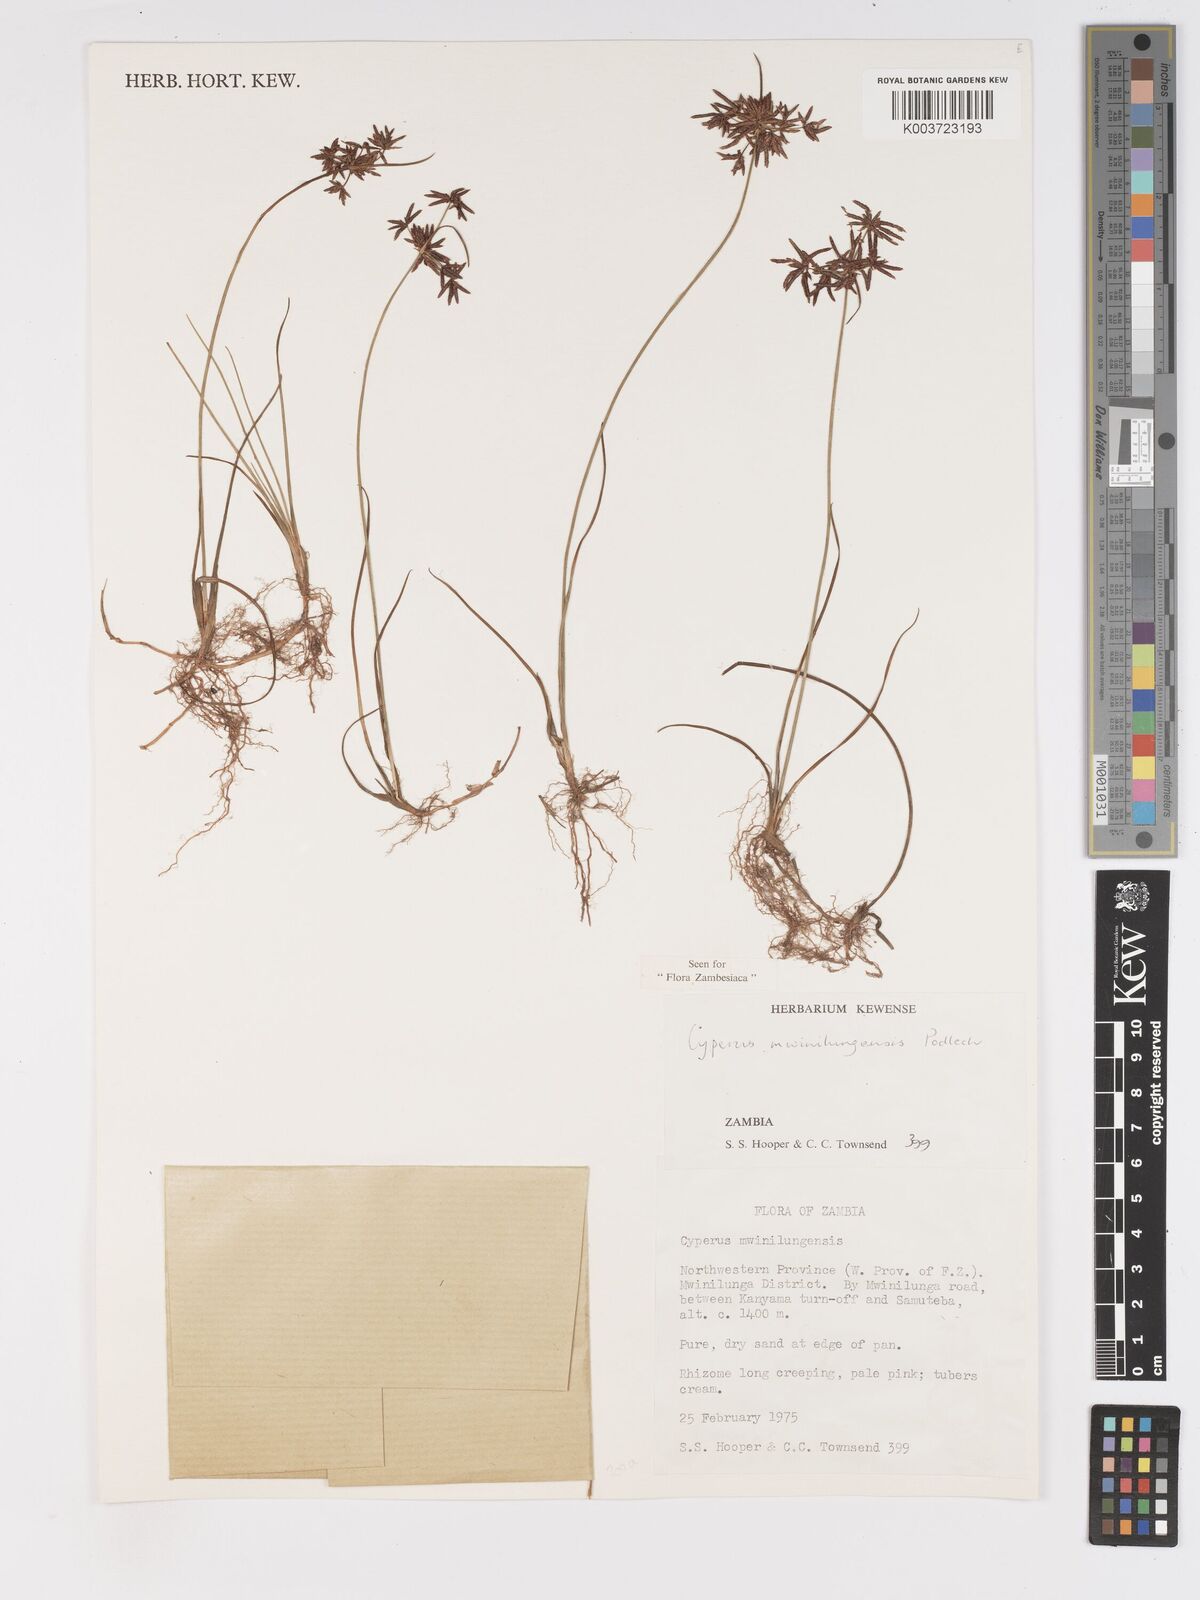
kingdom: Plantae
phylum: Tracheophyta
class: Liliopsida
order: Poales
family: Cyperaceae
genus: Cyperus
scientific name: Cyperus mwinilungensis
